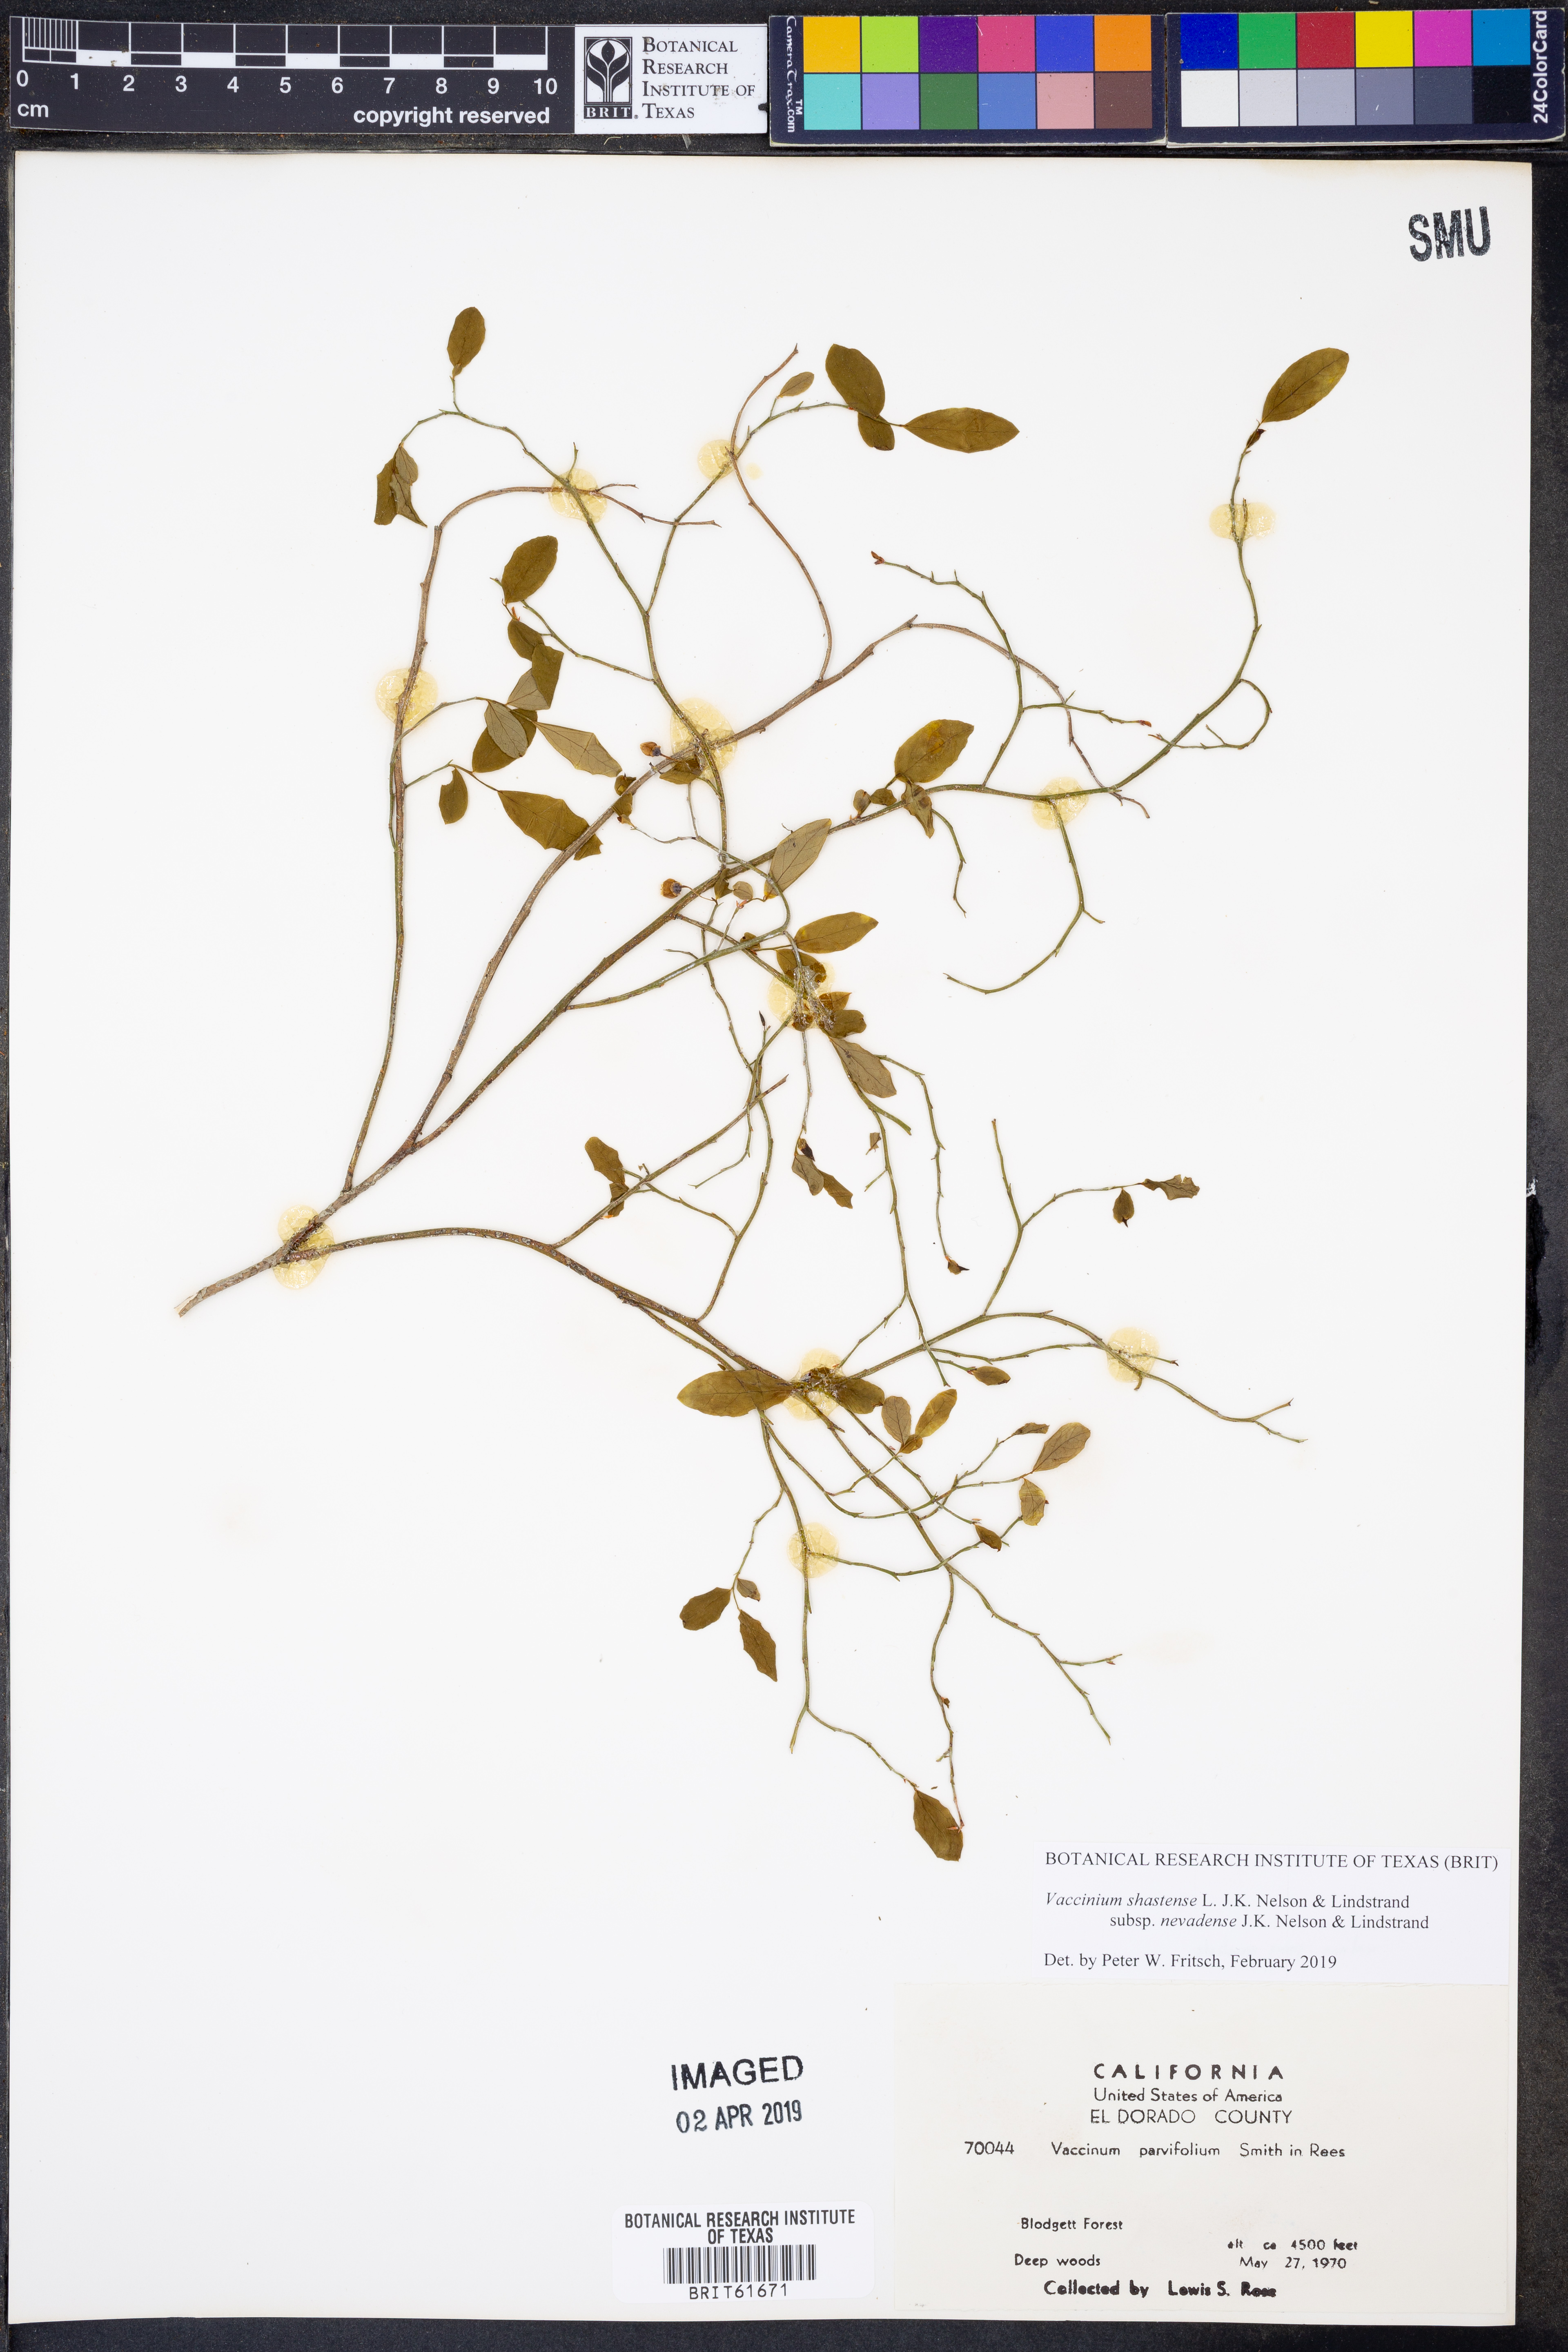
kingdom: Plantae
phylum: Tracheophyta
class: Magnoliopsida
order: Ericales
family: Ericaceae
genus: Vaccinium
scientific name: Vaccinium shastense
